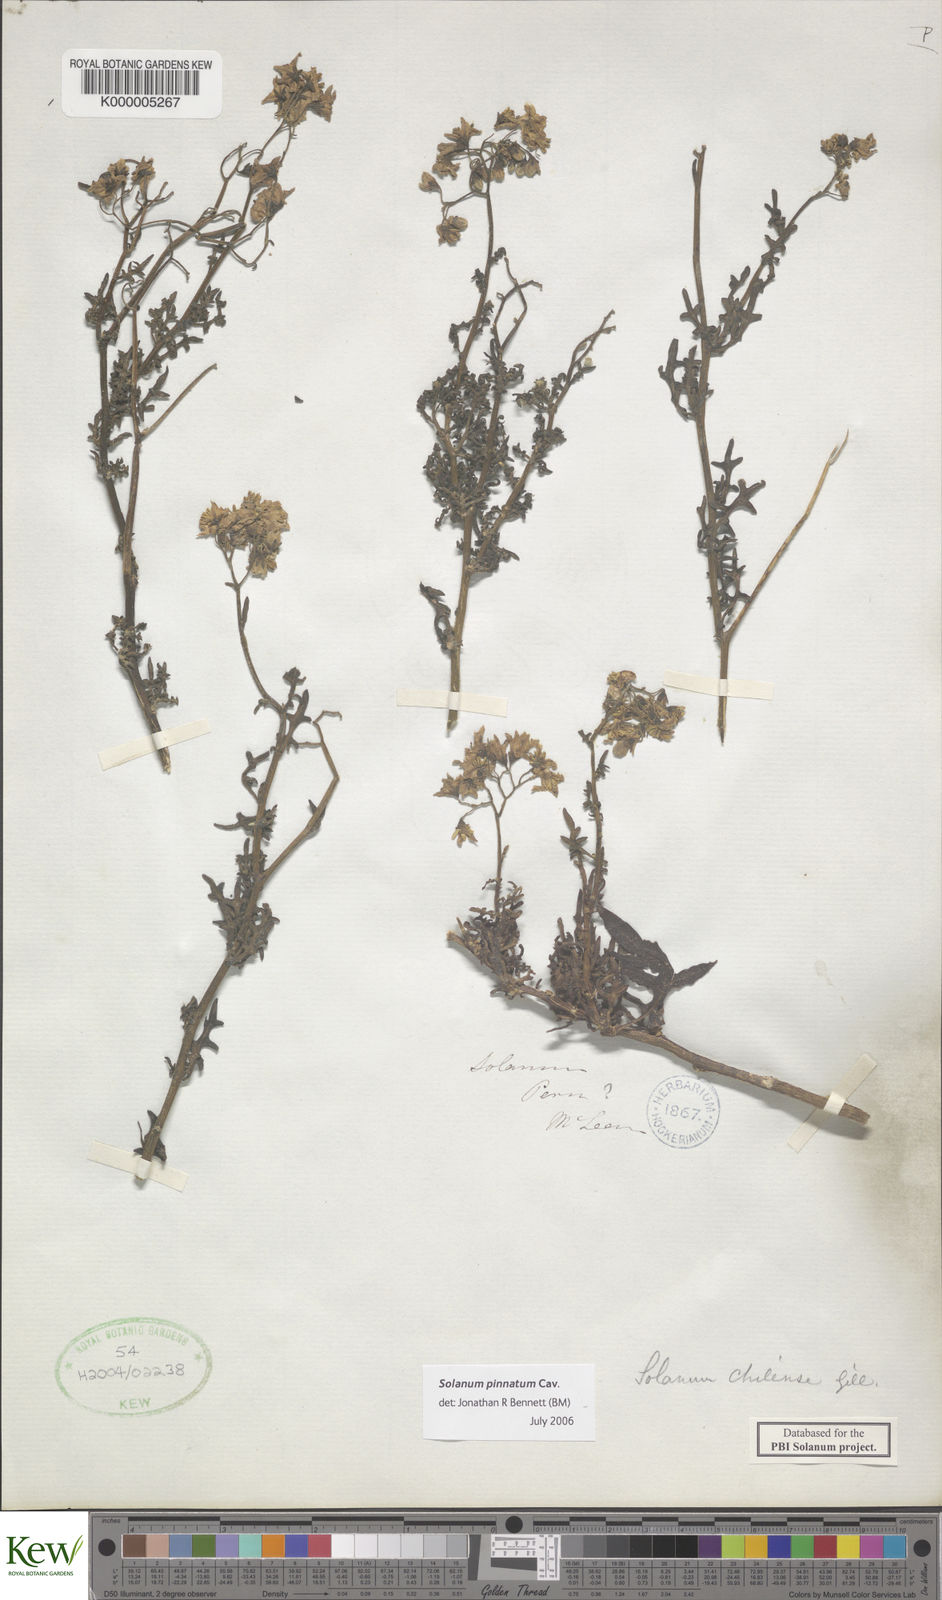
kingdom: Plantae
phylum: Tracheophyta
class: Magnoliopsida
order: Solanales
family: Solanaceae
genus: Solanum
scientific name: Solanum pinnatum
